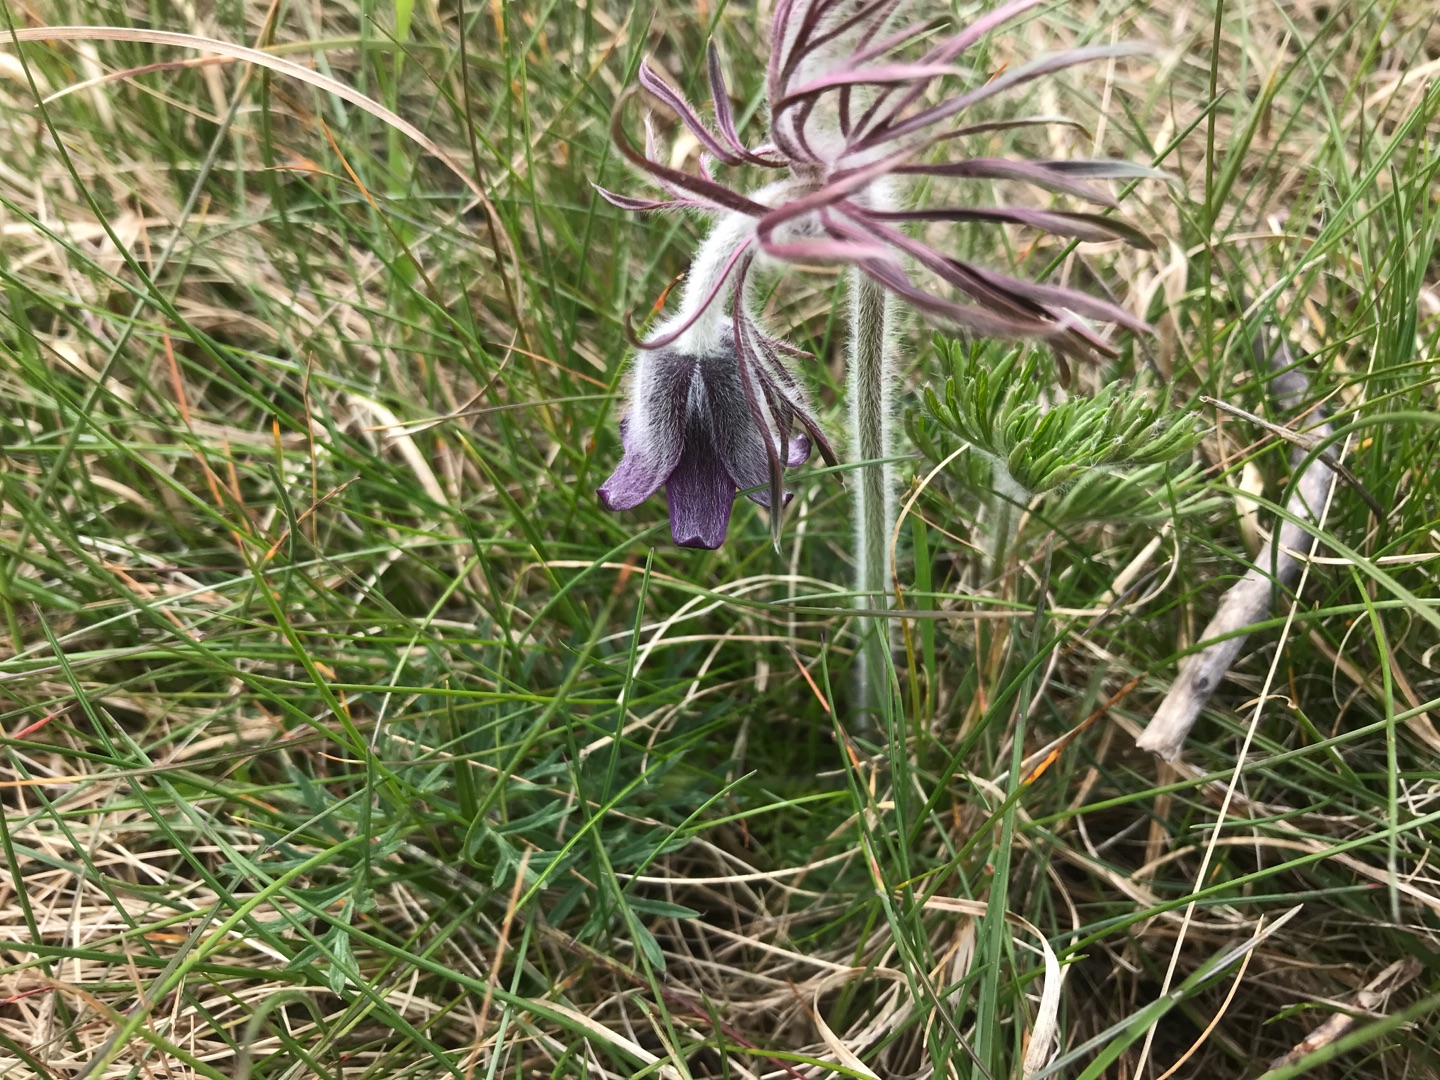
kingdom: Plantae
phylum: Tracheophyta
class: Magnoliopsida
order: Ranunculales
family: Ranunculaceae
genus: Pulsatilla
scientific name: Pulsatilla pratensis
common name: Nikkende kobjælde
